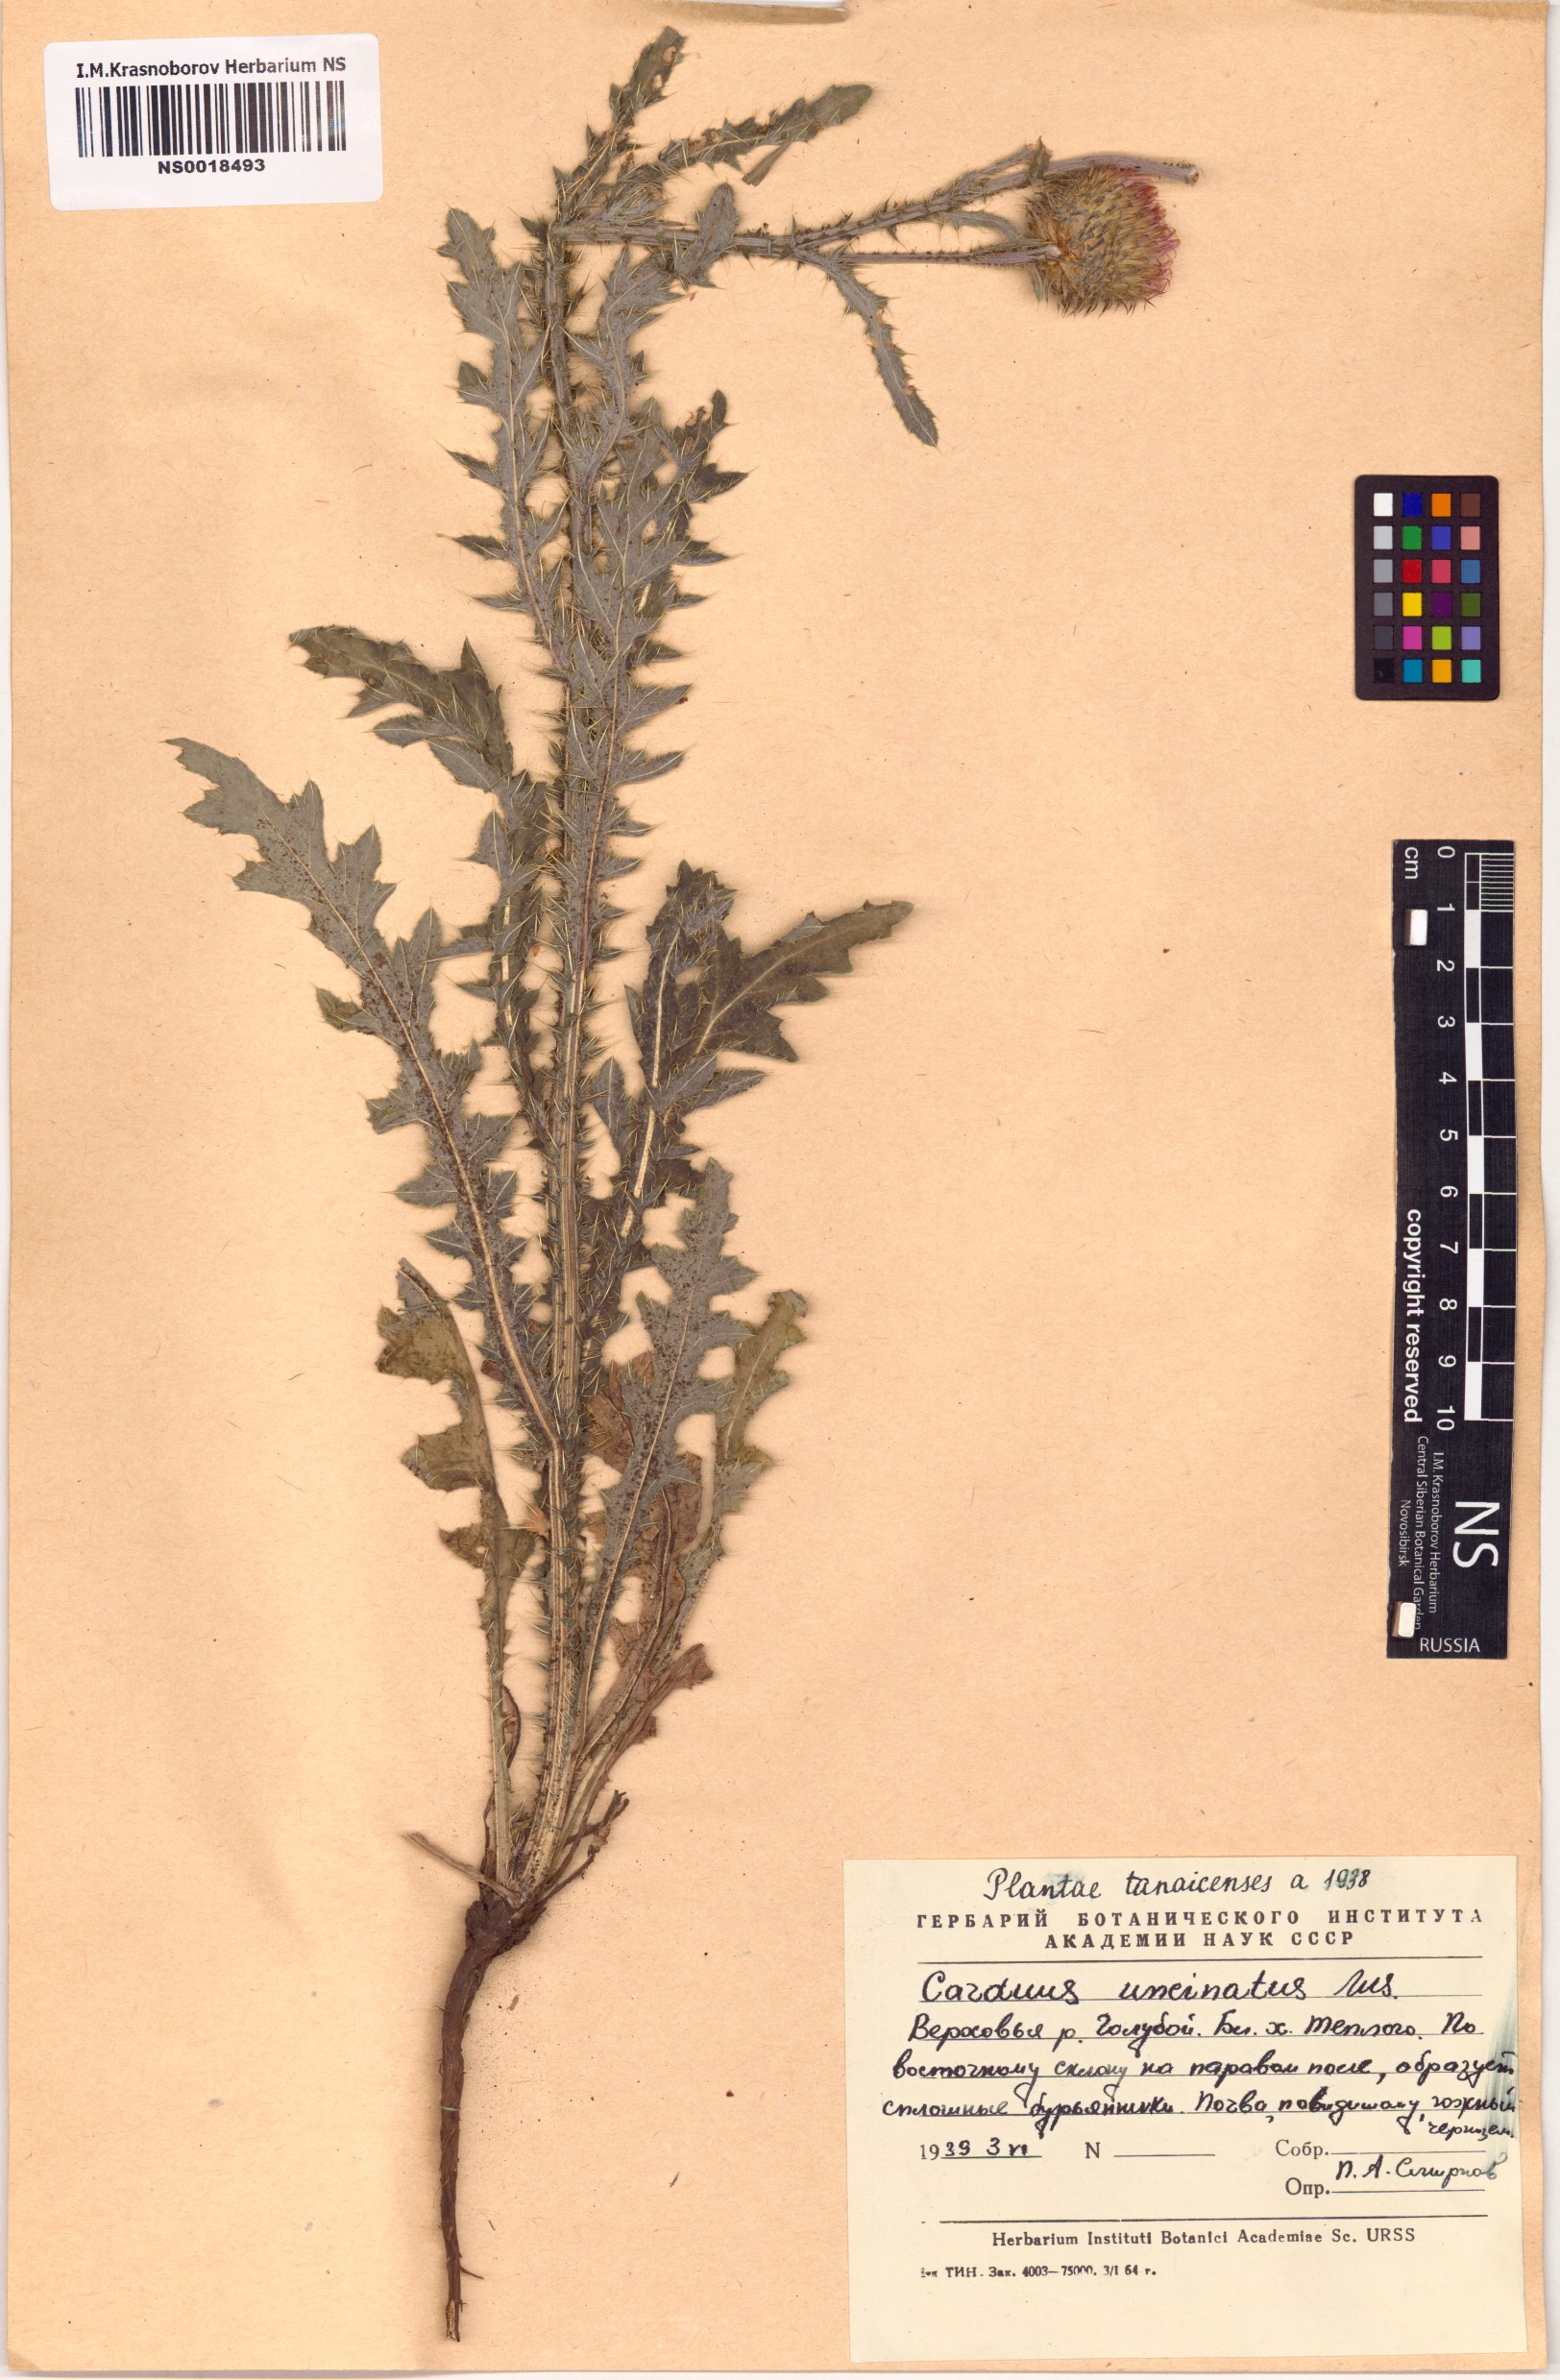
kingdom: Plantae
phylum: Tracheophyta
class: Magnoliopsida
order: Asterales
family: Asteraceae
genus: Carduus
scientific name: Carduus uncinatus
